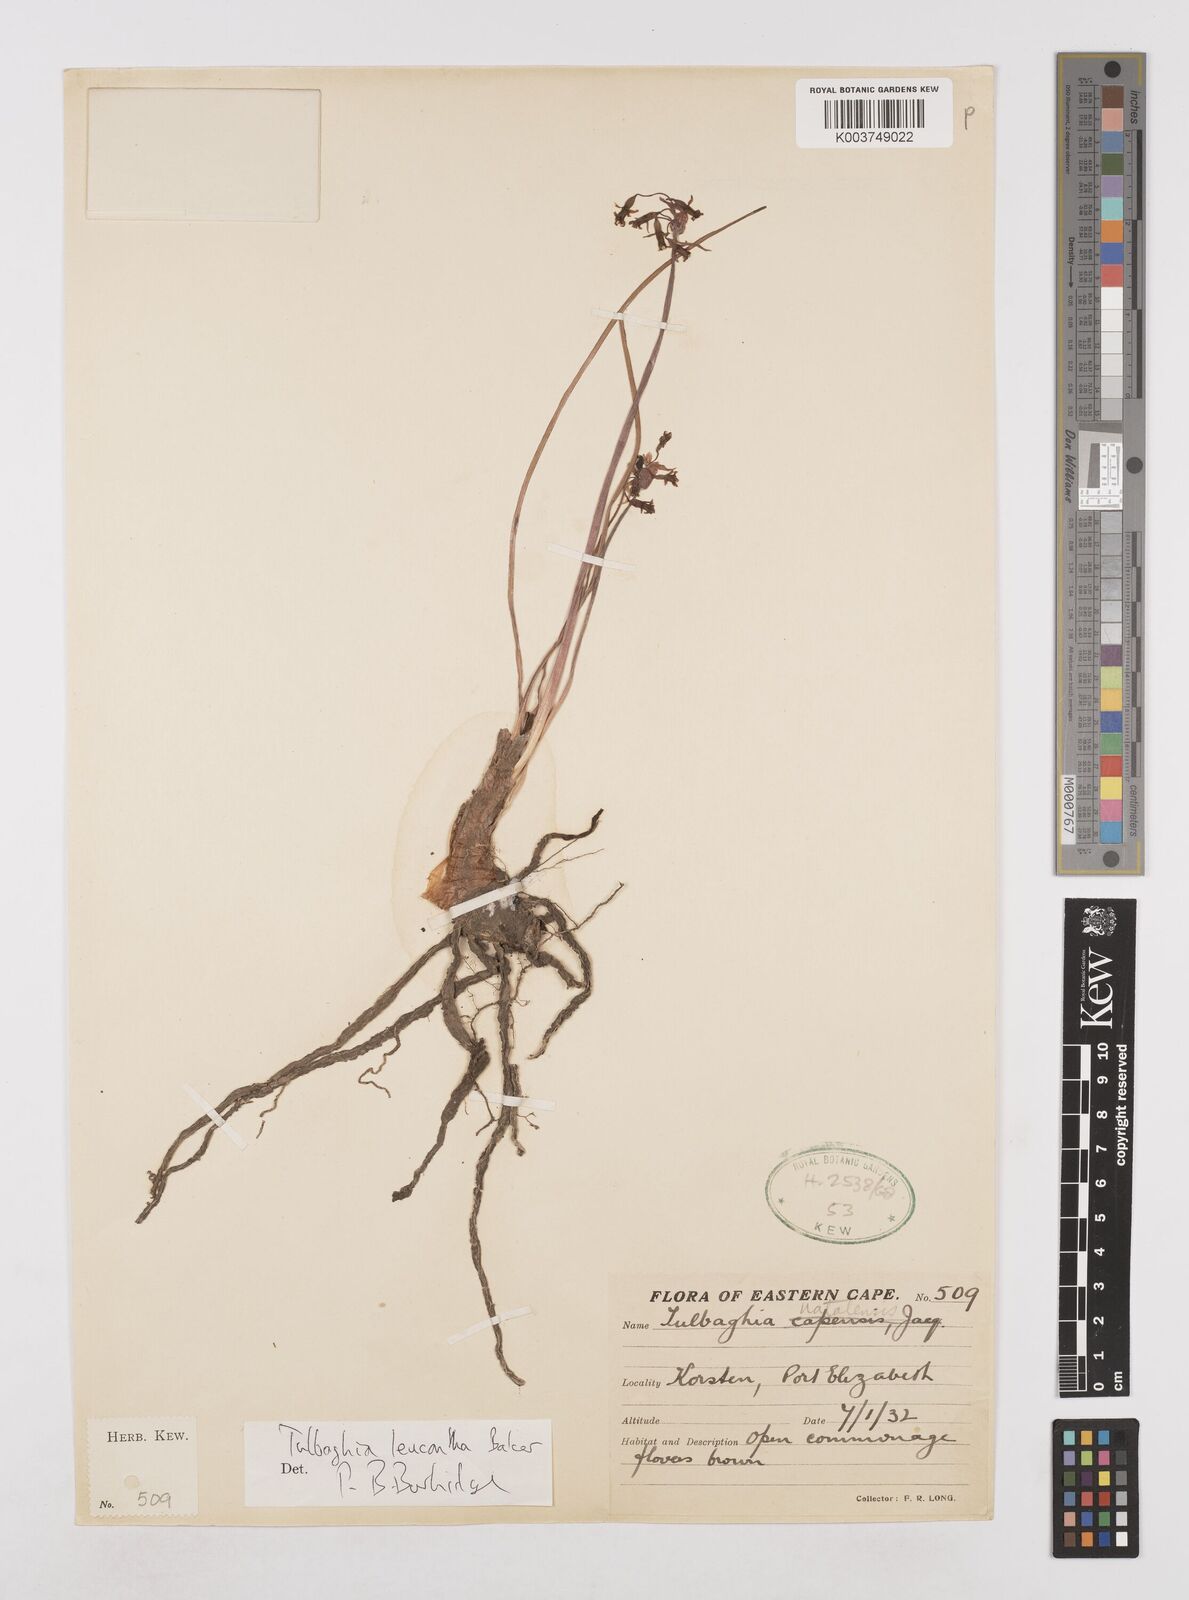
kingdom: Plantae
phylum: Tracheophyta
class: Liliopsida
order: Asparagales
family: Amaryllidaceae
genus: Tulbaghia
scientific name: Tulbaghia leucantha
